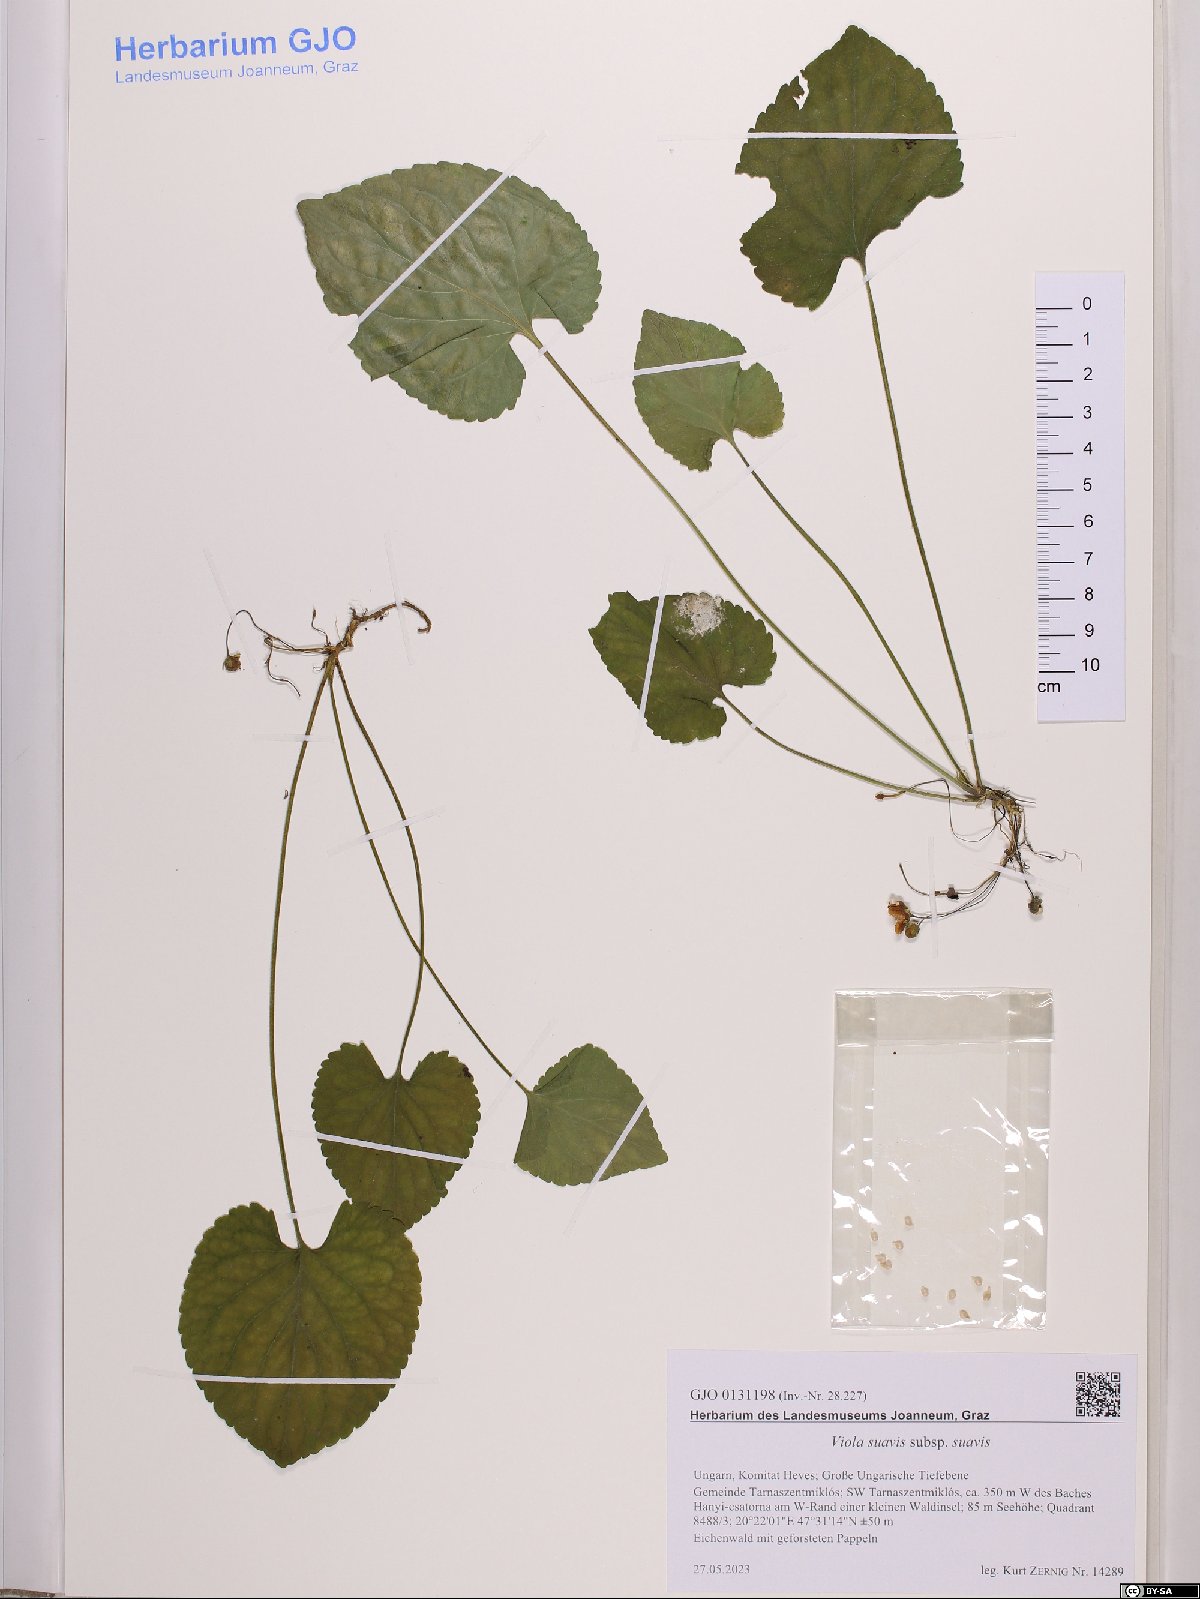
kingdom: Plantae
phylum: Tracheophyta
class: Magnoliopsida
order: Malpighiales
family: Violaceae
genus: Viola
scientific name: Viola suavis
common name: Russian violet
